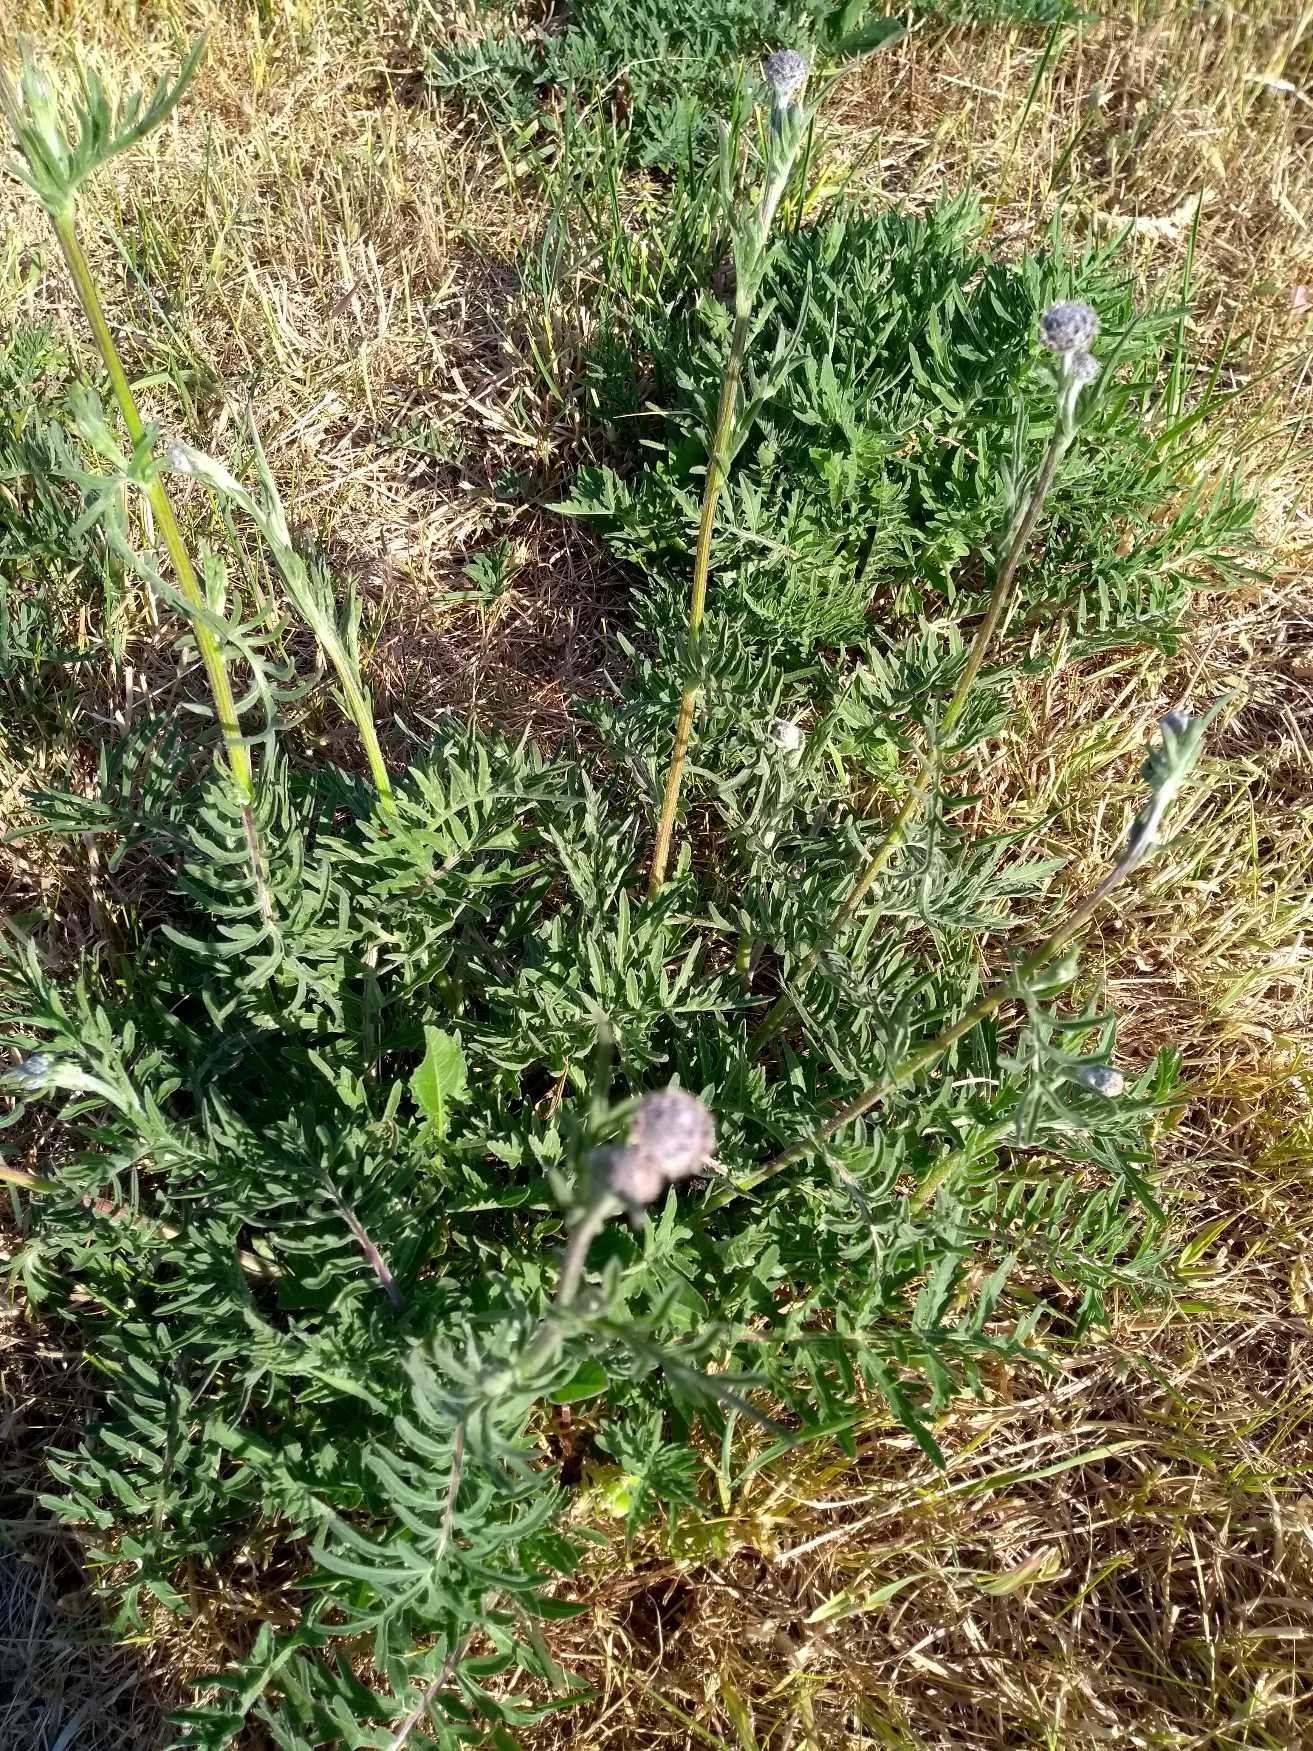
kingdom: Plantae
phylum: Tracheophyta
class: Magnoliopsida
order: Asterales
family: Asteraceae
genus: Centaurea
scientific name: Centaurea scabiosa
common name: Stor knopurt
